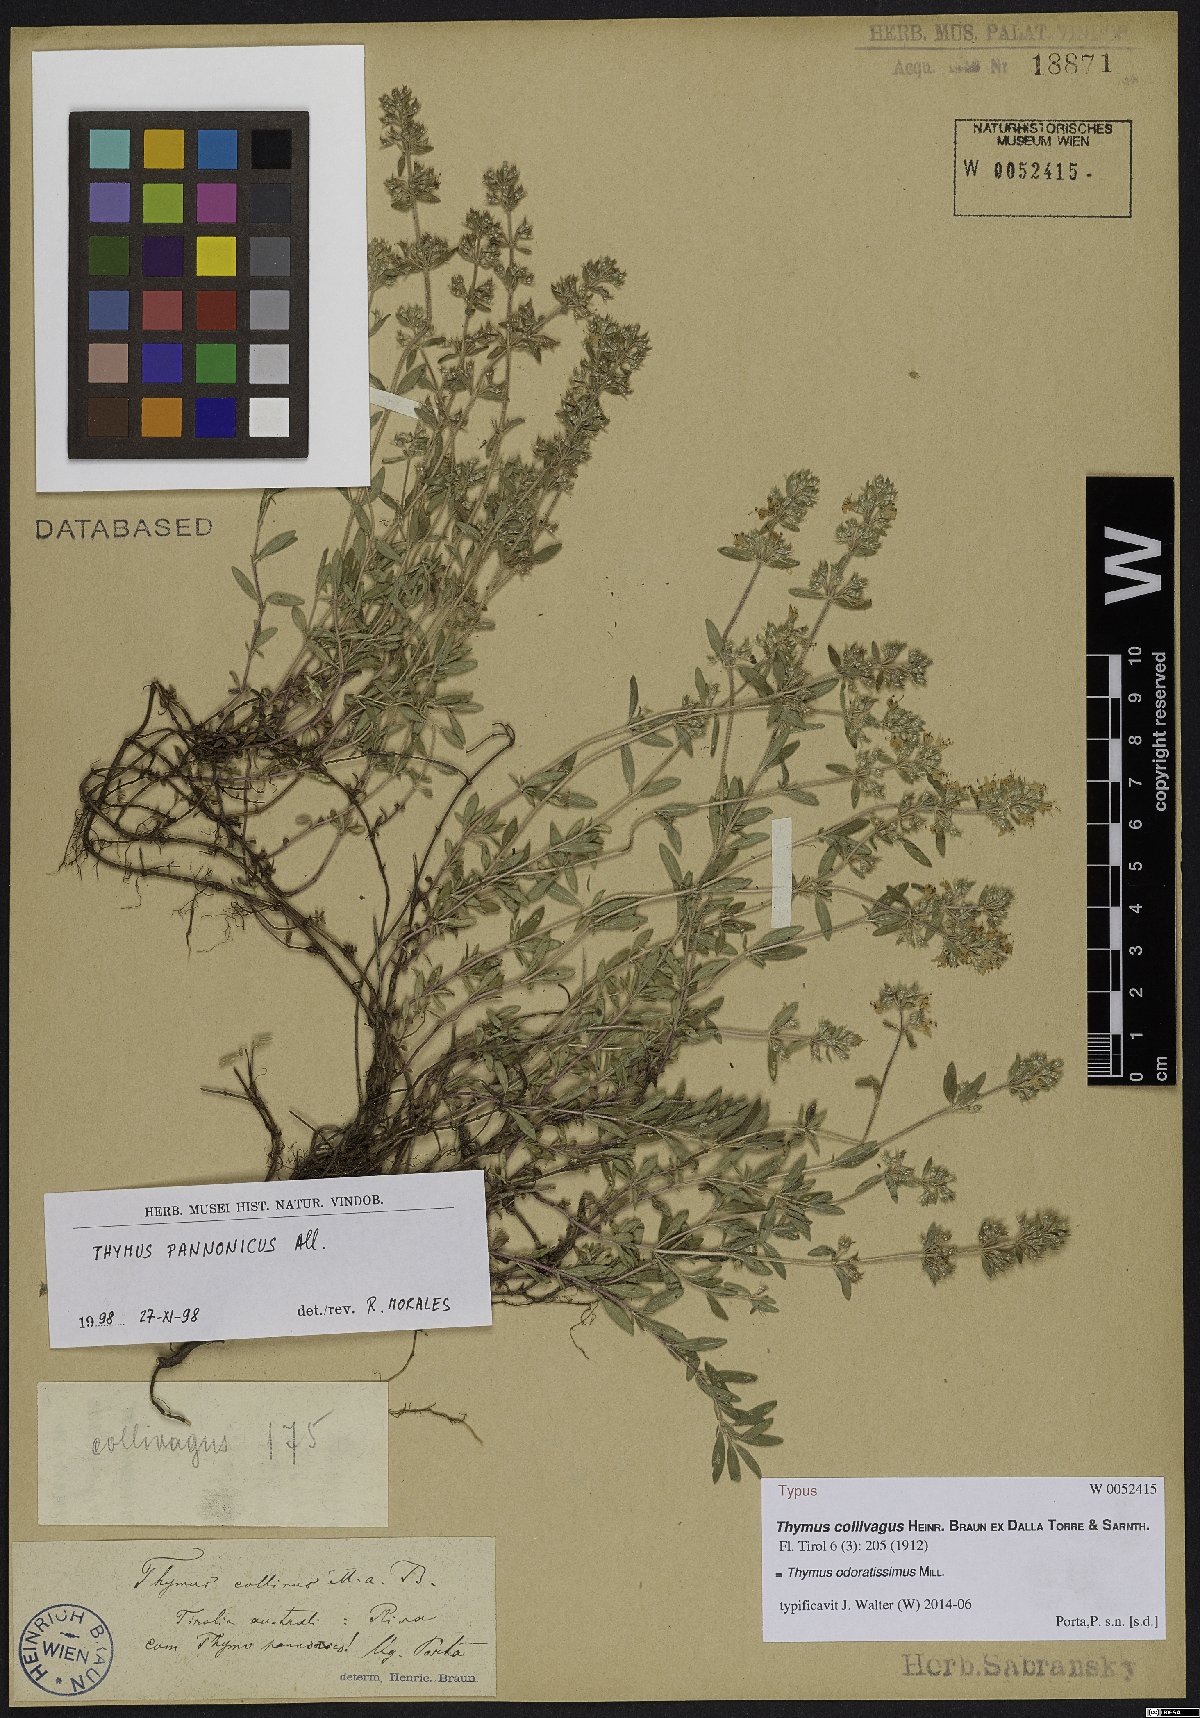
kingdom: Plantae
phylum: Tracheophyta
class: Magnoliopsida
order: Lamiales
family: Lamiaceae
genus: Thymus
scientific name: Thymus odoratissimus
